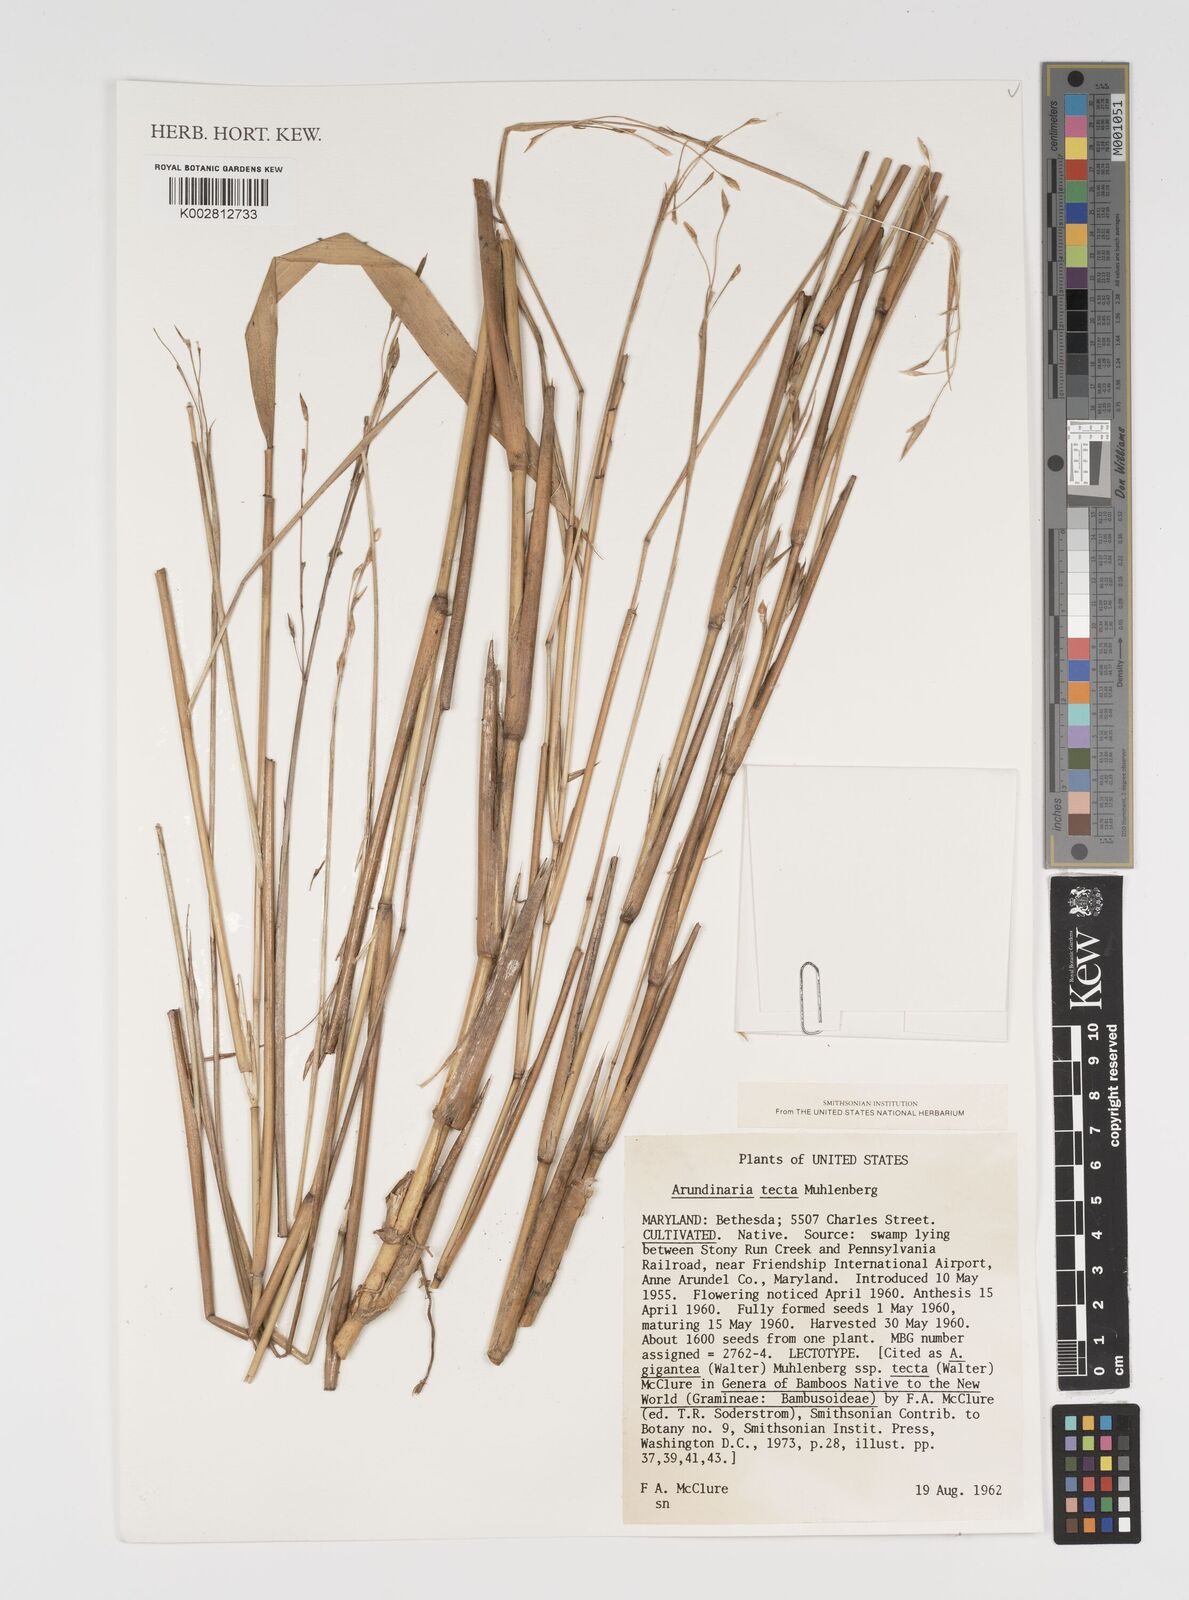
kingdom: Plantae
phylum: Tracheophyta
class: Liliopsida
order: Poales
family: Poaceae
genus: Arundinaria
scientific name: Arundinaria tecta
